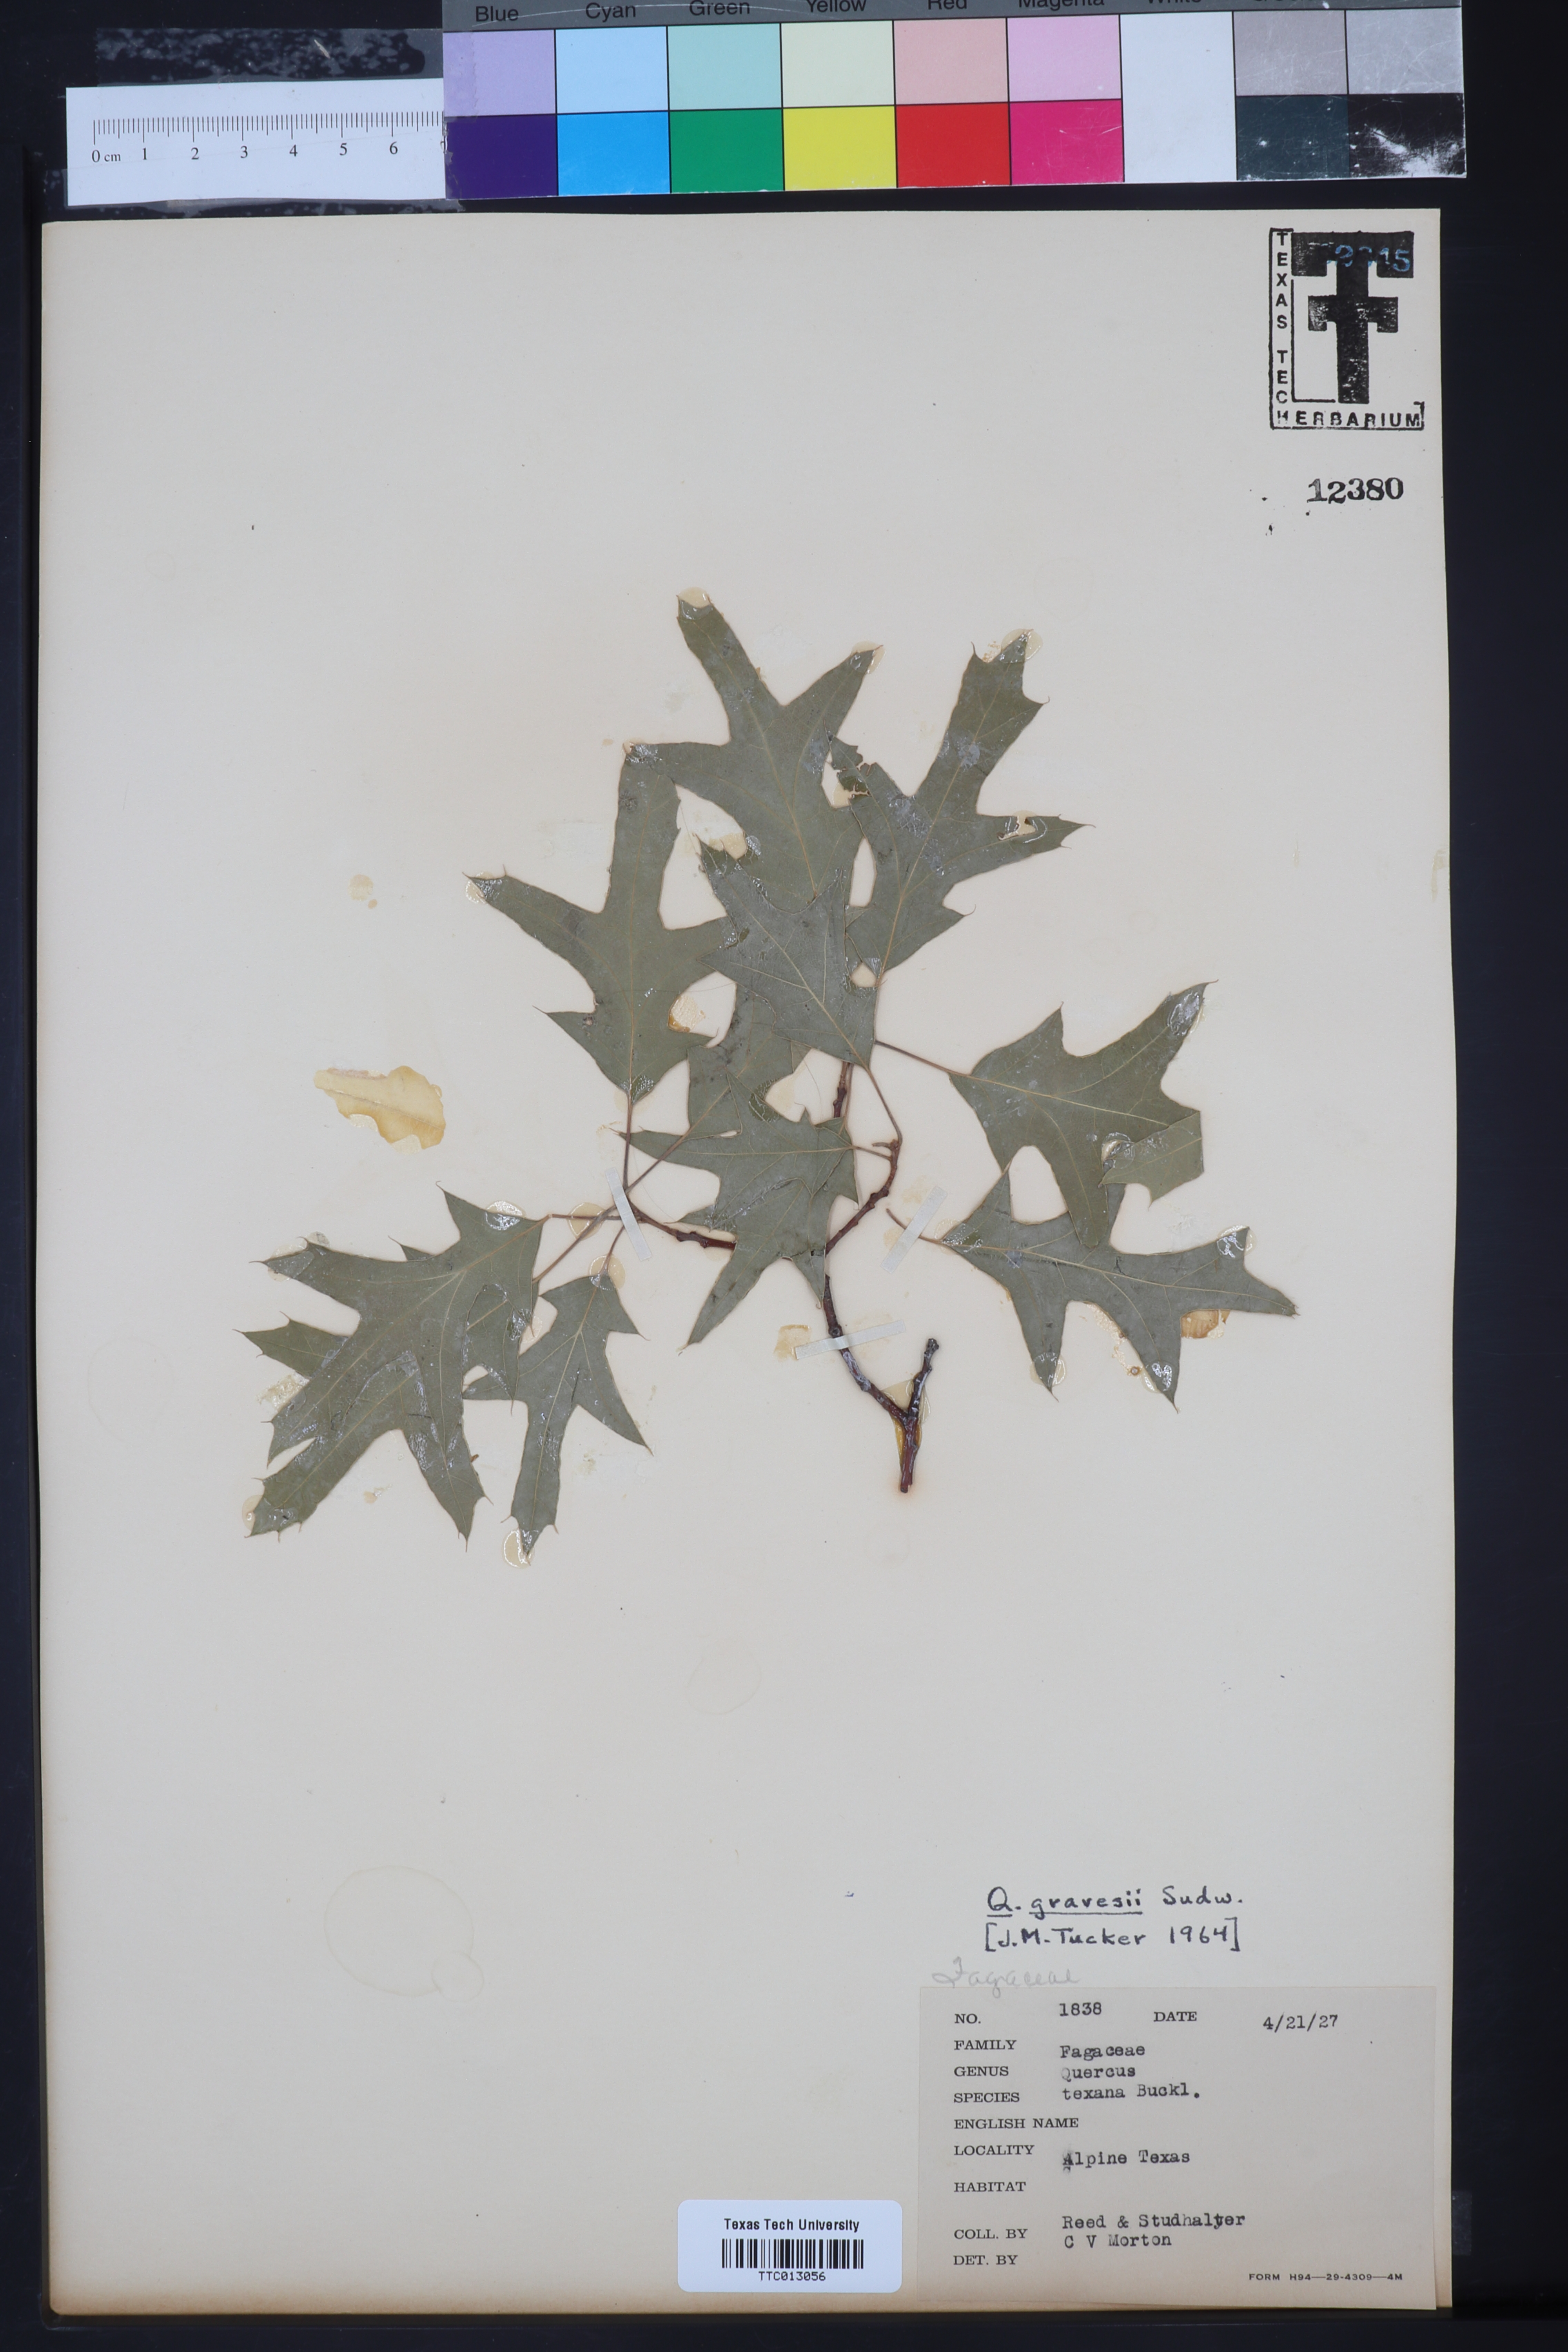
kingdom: Plantae
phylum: Tracheophyta
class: Magnoliopsida
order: Fagales
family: Fagaceae
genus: Quercus
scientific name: Quercus gravesii
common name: Chisos red oak
